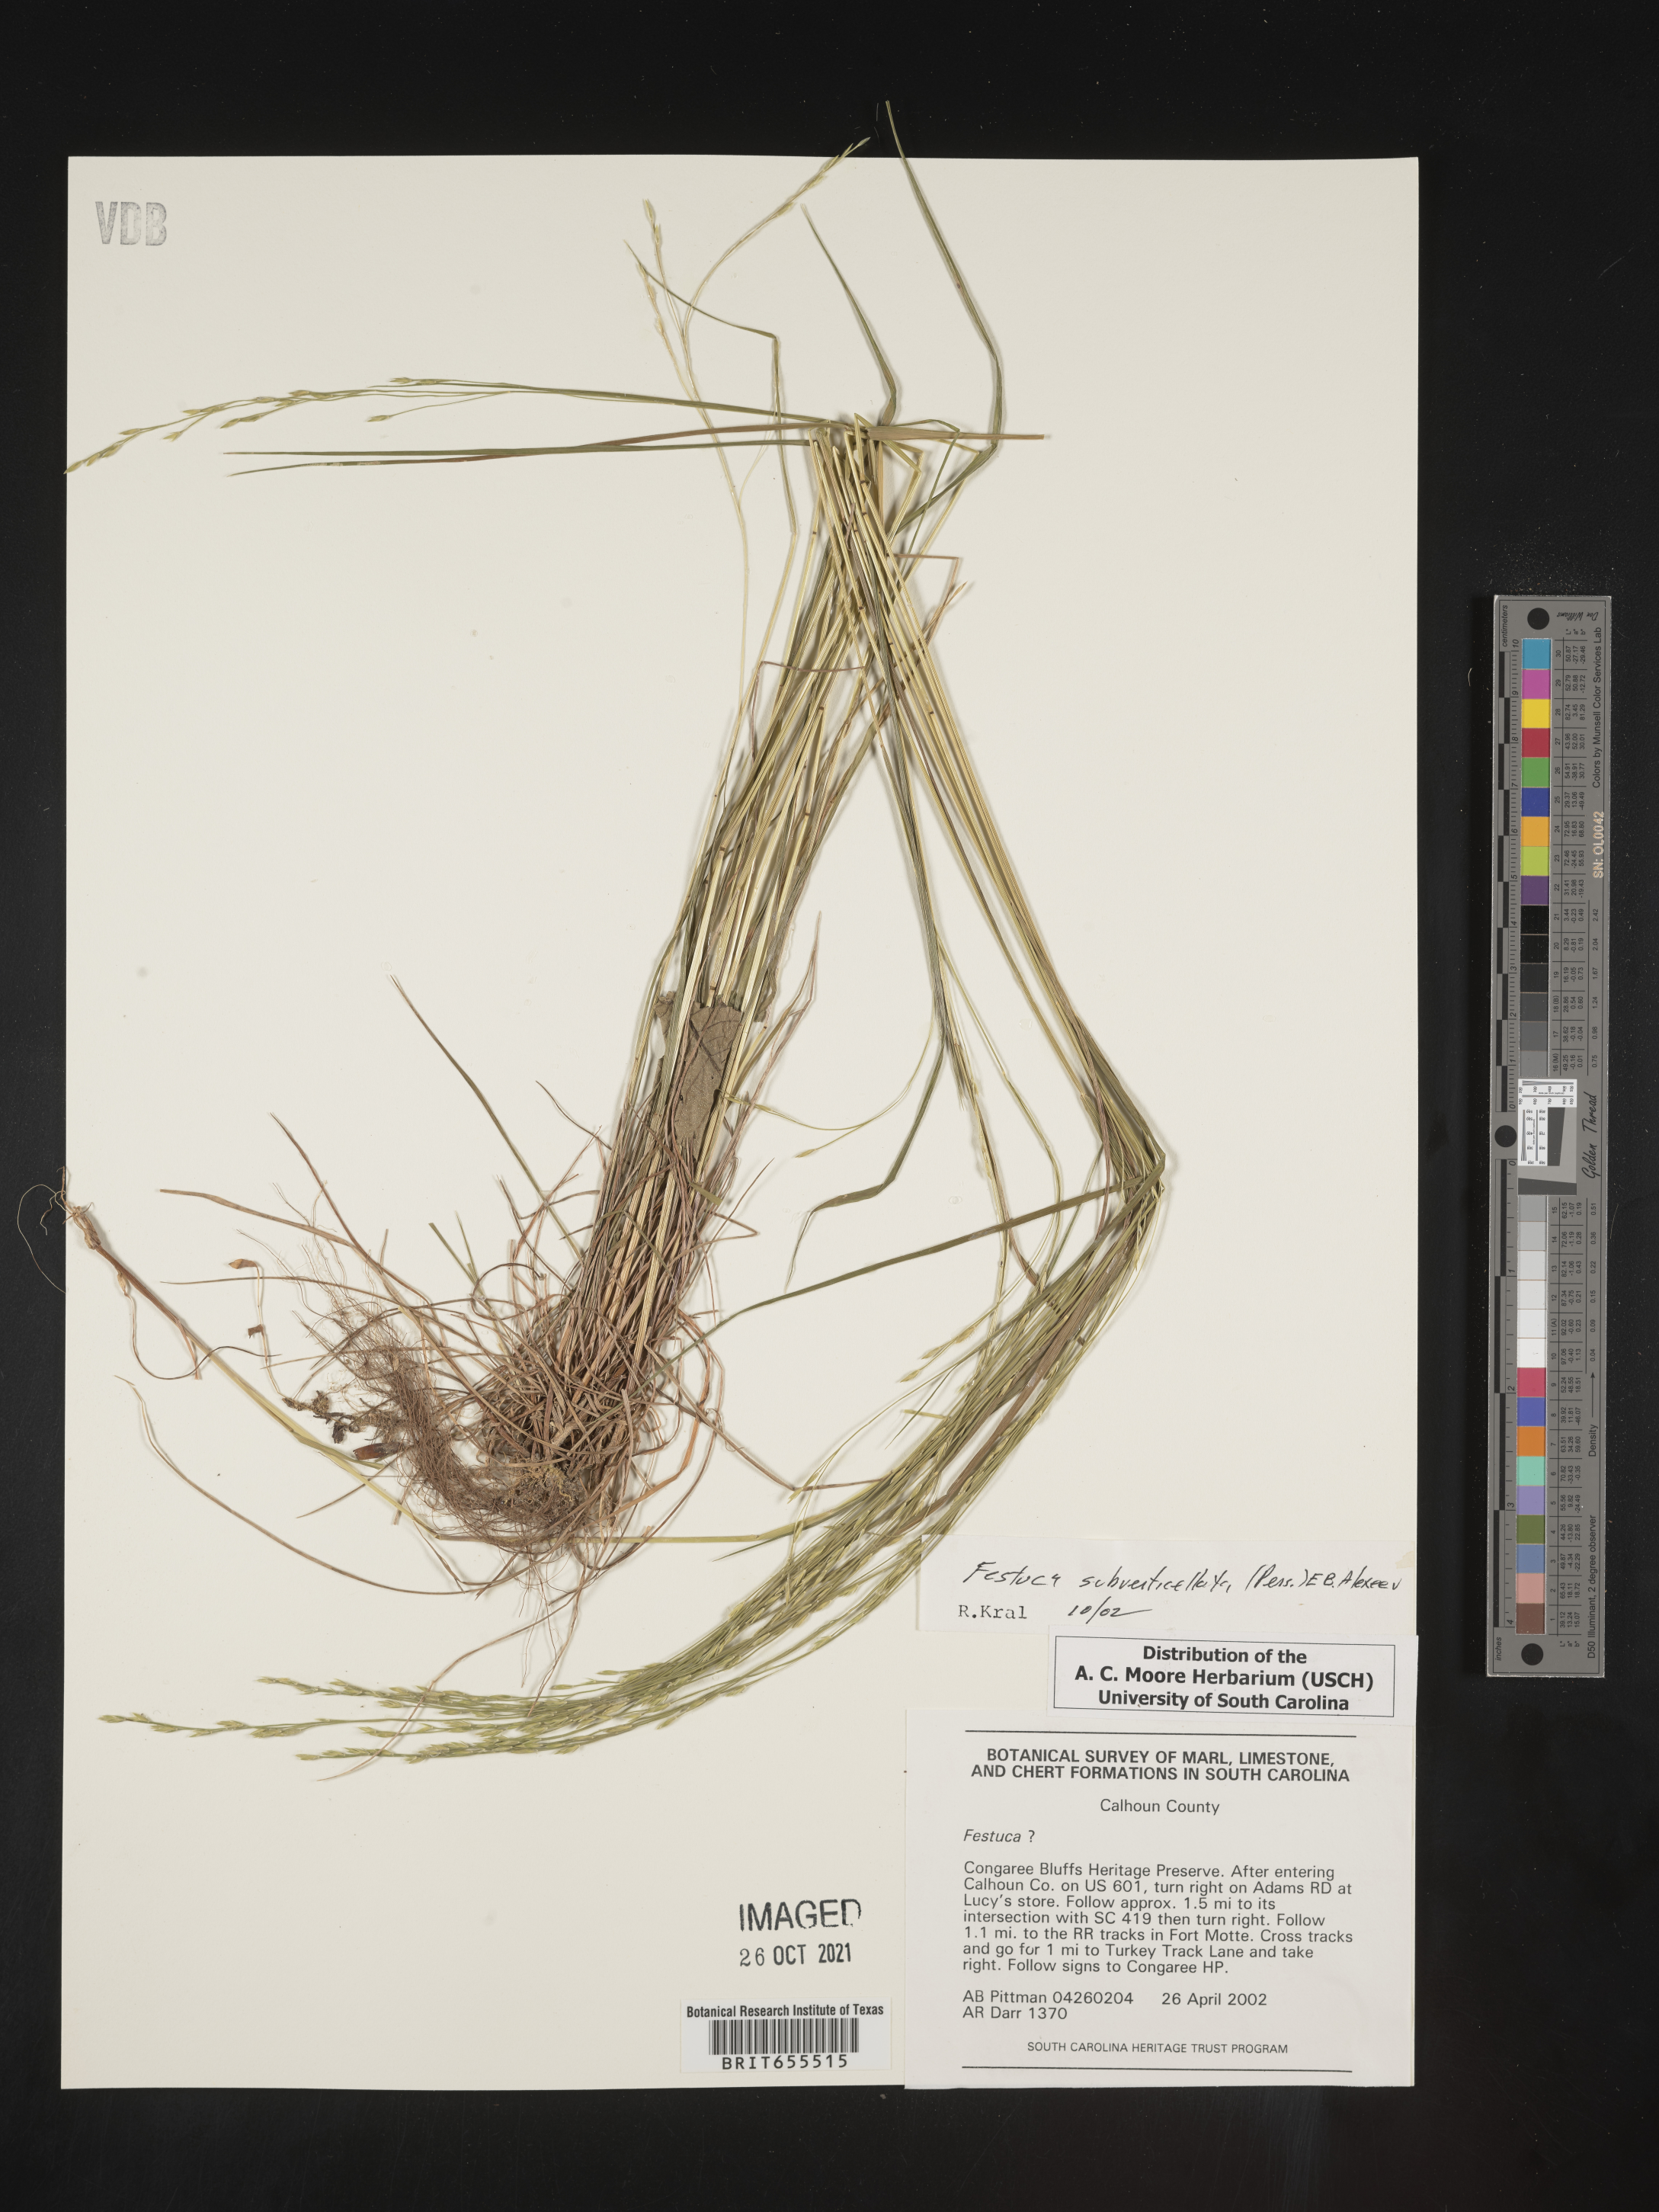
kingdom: Plantae
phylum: Tracheophyta
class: Liliopsida
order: Poales
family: Poaceae
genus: Festuca
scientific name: Festuca
